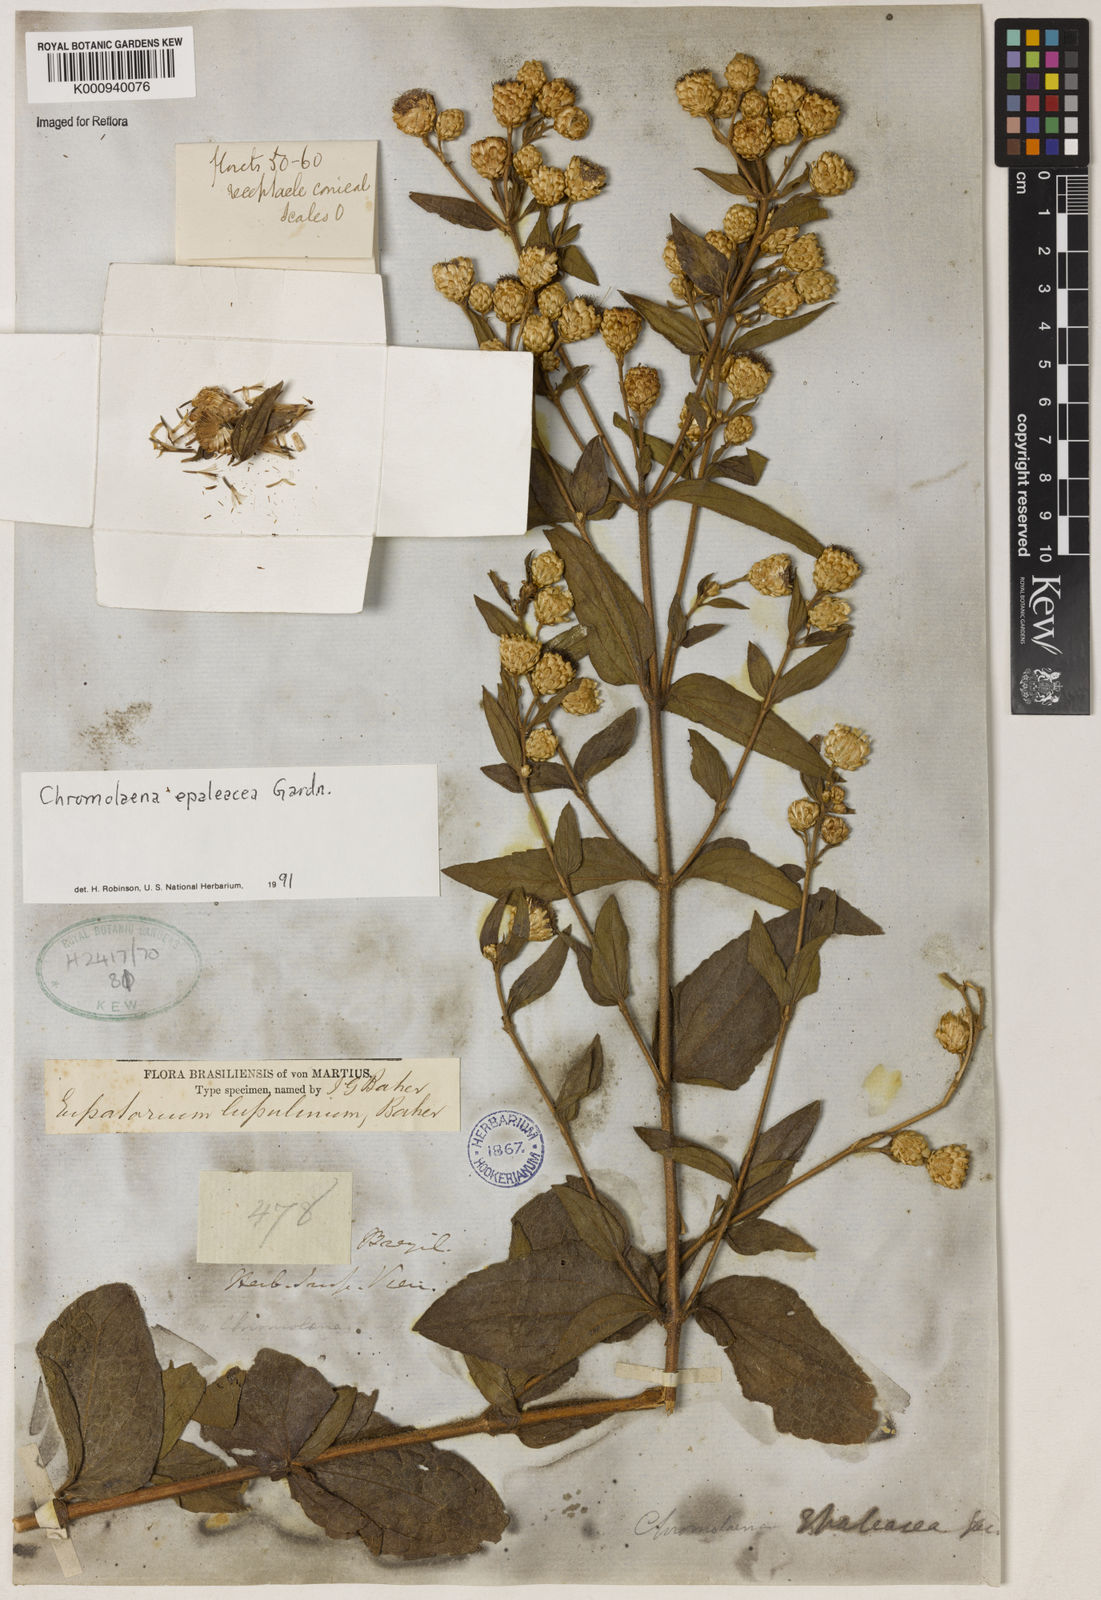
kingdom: Plantae
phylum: Tracheophyta
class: Magnoliopsida
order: Asterales
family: Asteraceae
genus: Chromolaena
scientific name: Chromolaena epaleacea
